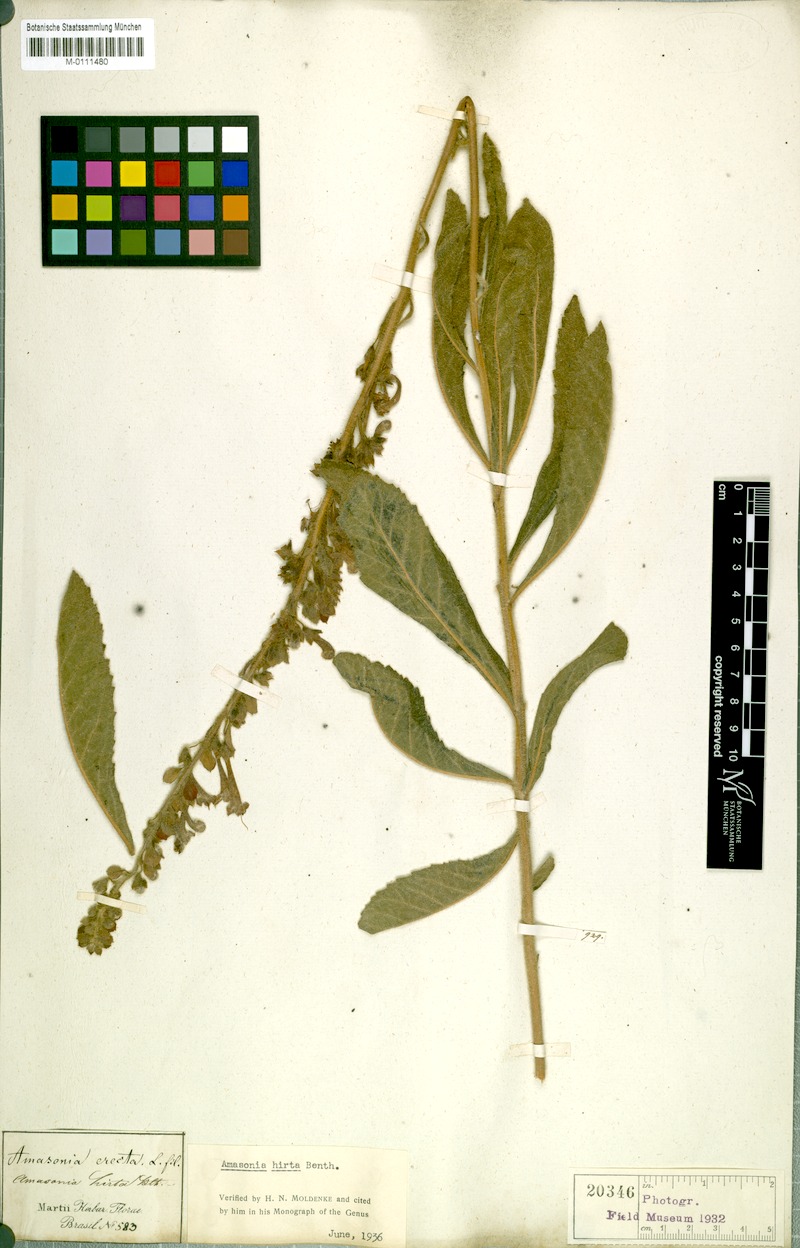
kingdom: Plantae
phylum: Tracheophyta
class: Magnoliopsida
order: Lamiales
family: Lamiaceae
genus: Amasonia
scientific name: Amasonia hirta
